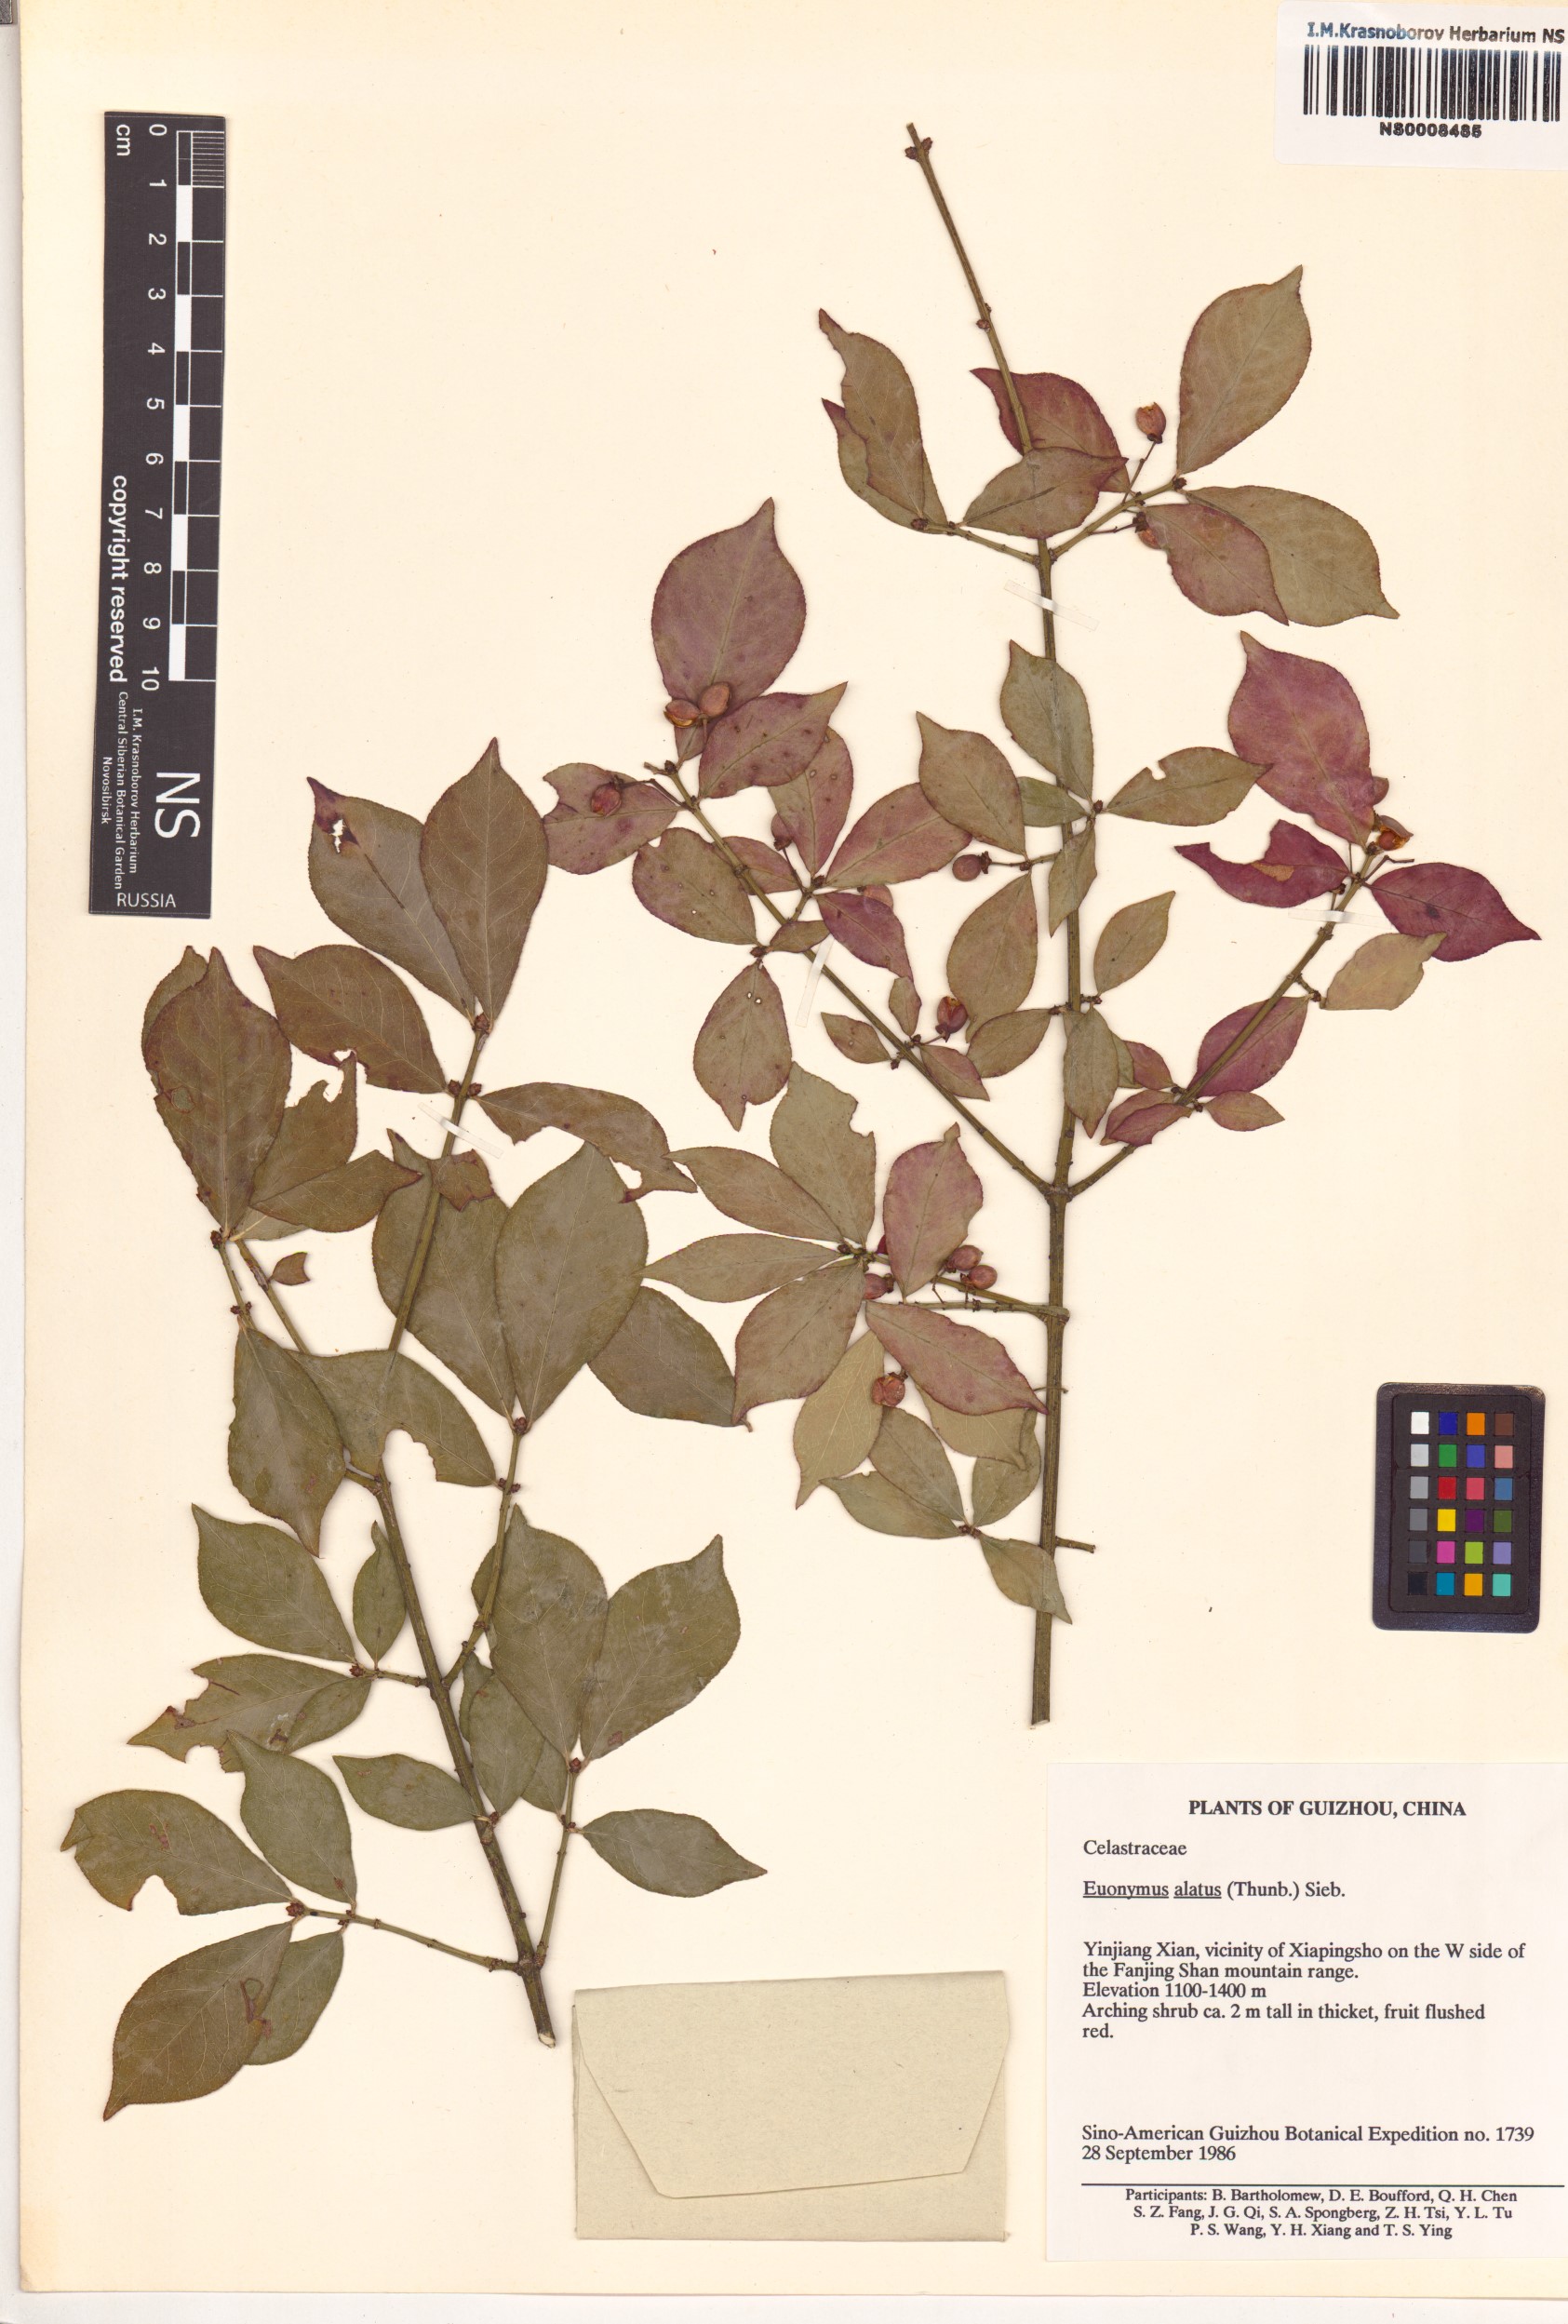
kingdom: Plantae
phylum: Tracheophyta
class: Magnoliopsida
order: Celastrales
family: Celastraceae
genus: Euonymus
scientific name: Euonymus alatus
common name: Winged euonymus
